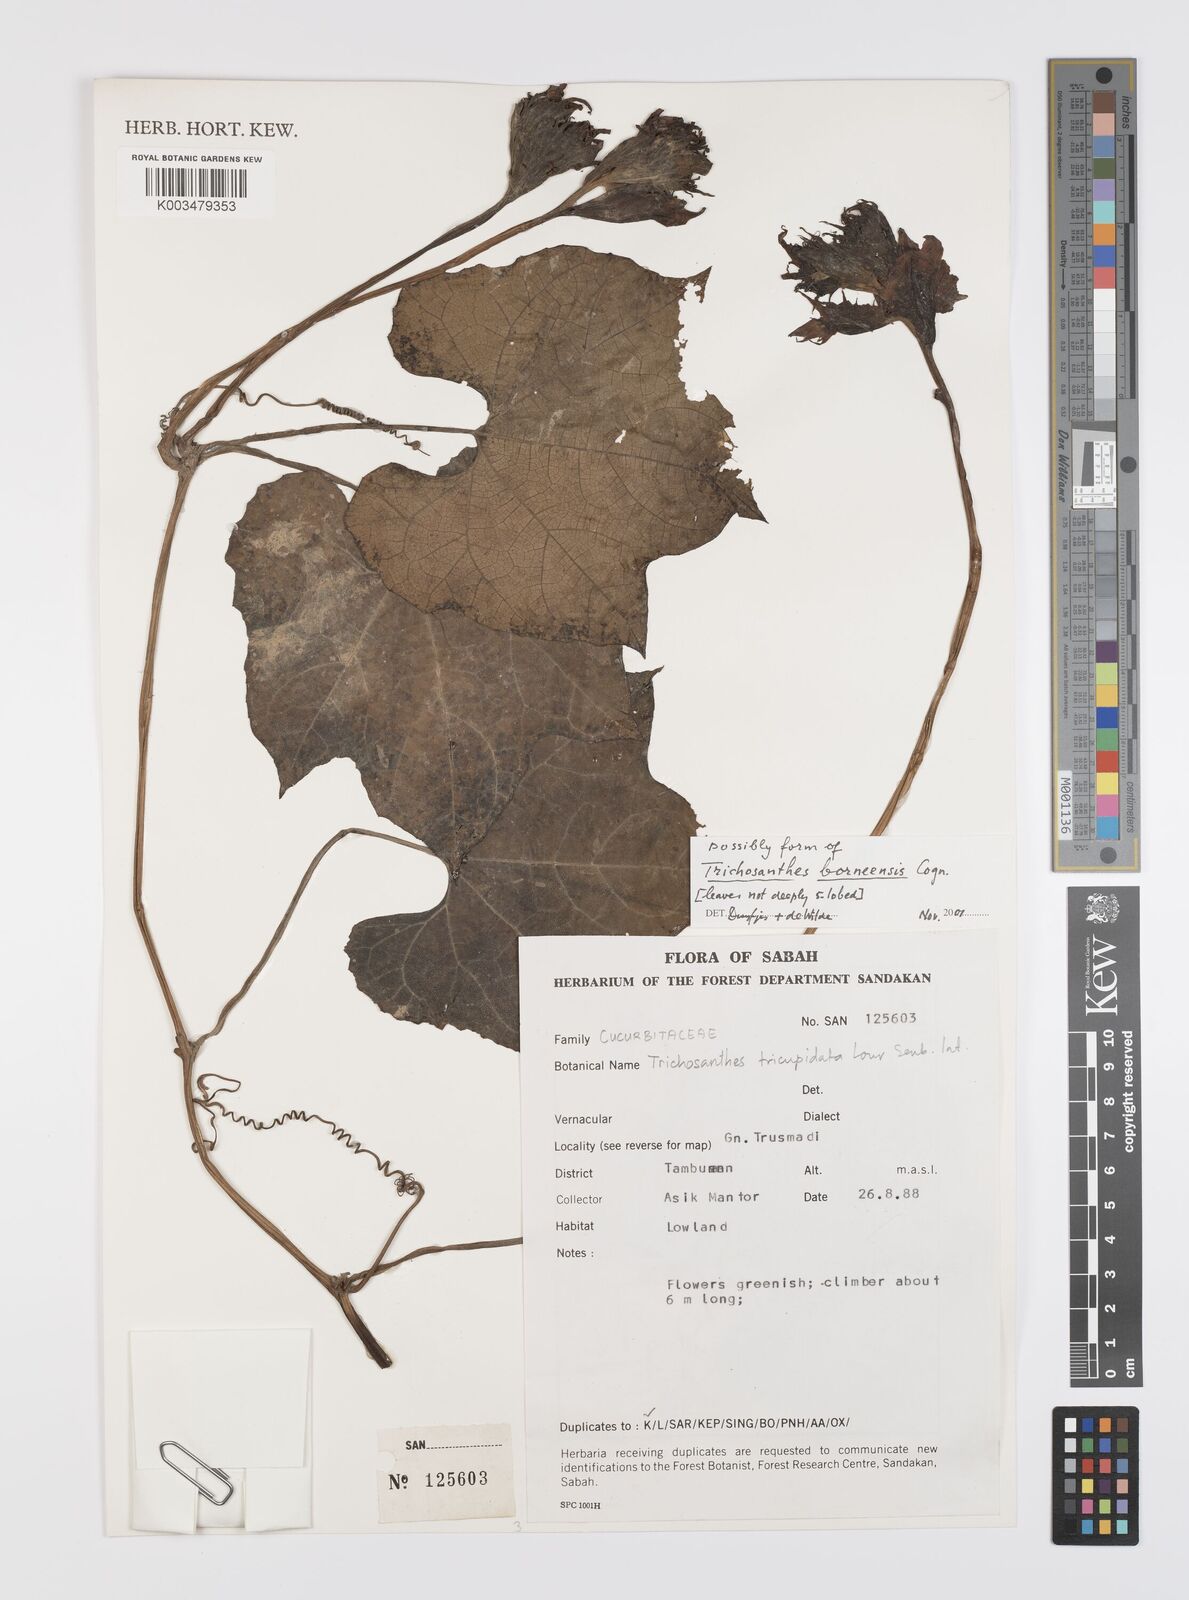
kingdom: Plantae
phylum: Tracheophyta
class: Magnoliopsida
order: Cucurbitales
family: Cucurbitaceae
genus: Trichosanthes
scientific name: Trichosanthes borneensis
